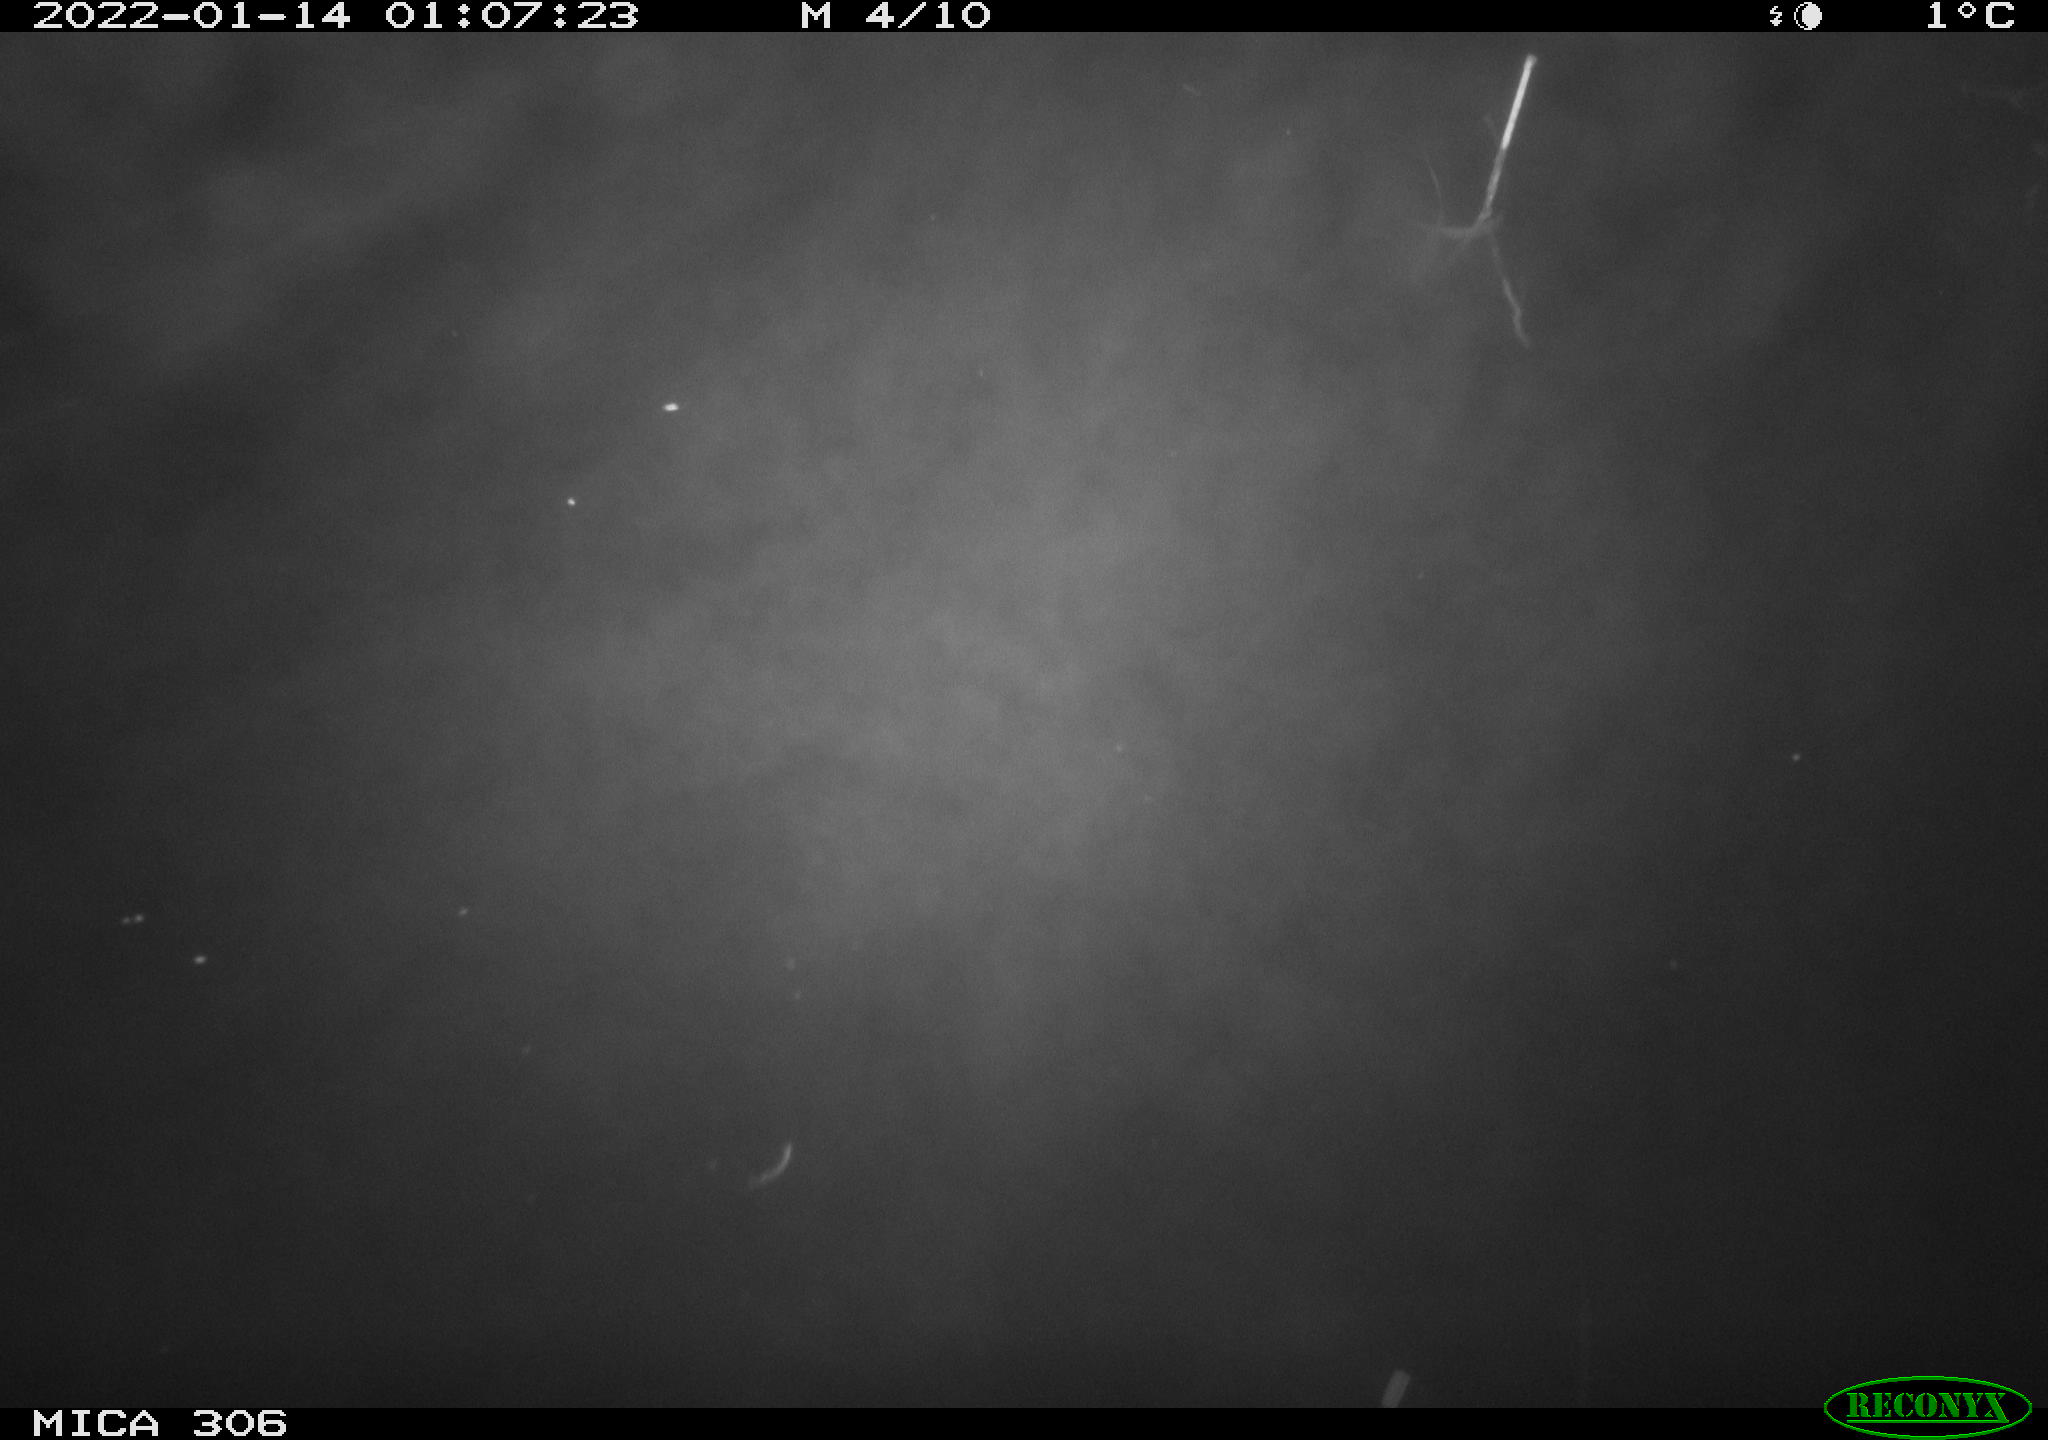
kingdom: Animalia
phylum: Chordata
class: Mammalia
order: Rodentia
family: Cricetidae
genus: Ondatra
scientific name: Ondatra zibethicus
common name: Muskrat
